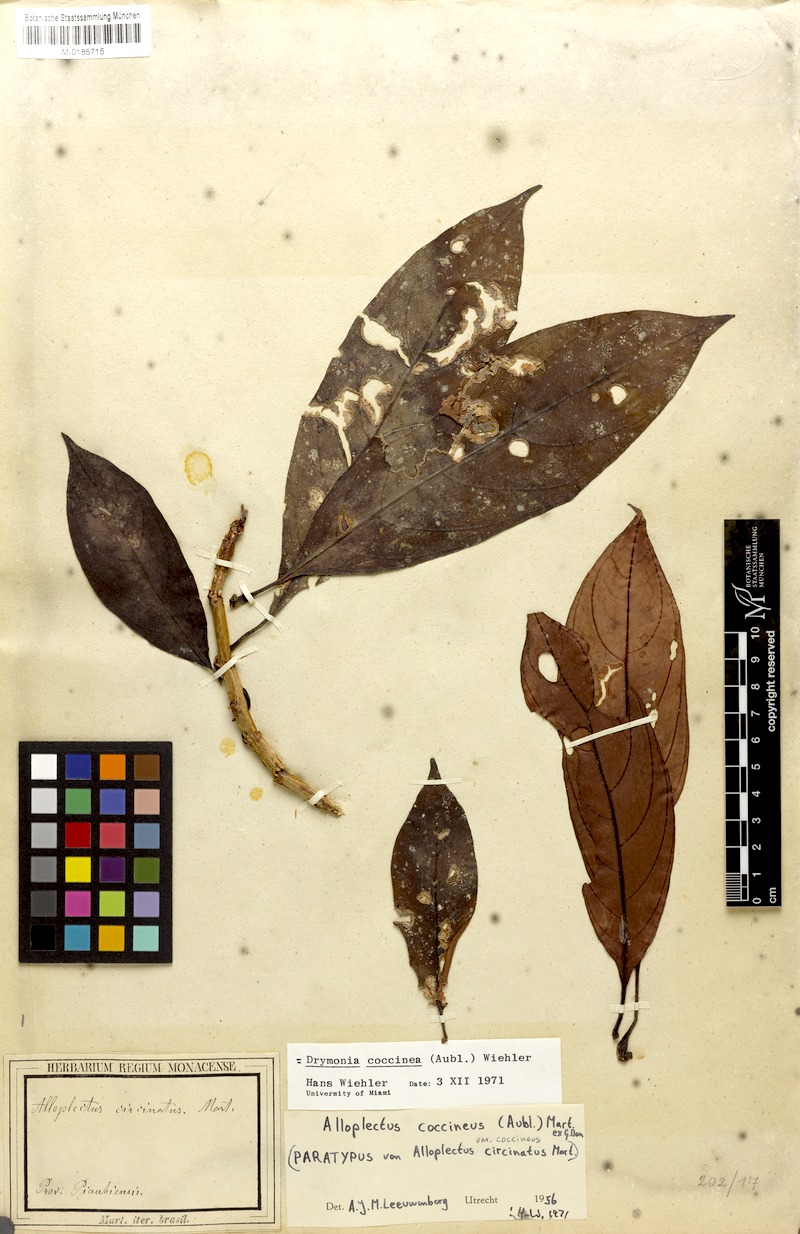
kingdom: Plantae
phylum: Tracheophyta
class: Magnoliopsida
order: Lamiales
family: Gesneriaceae
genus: Drymonia
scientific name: Drymonia coccinea
